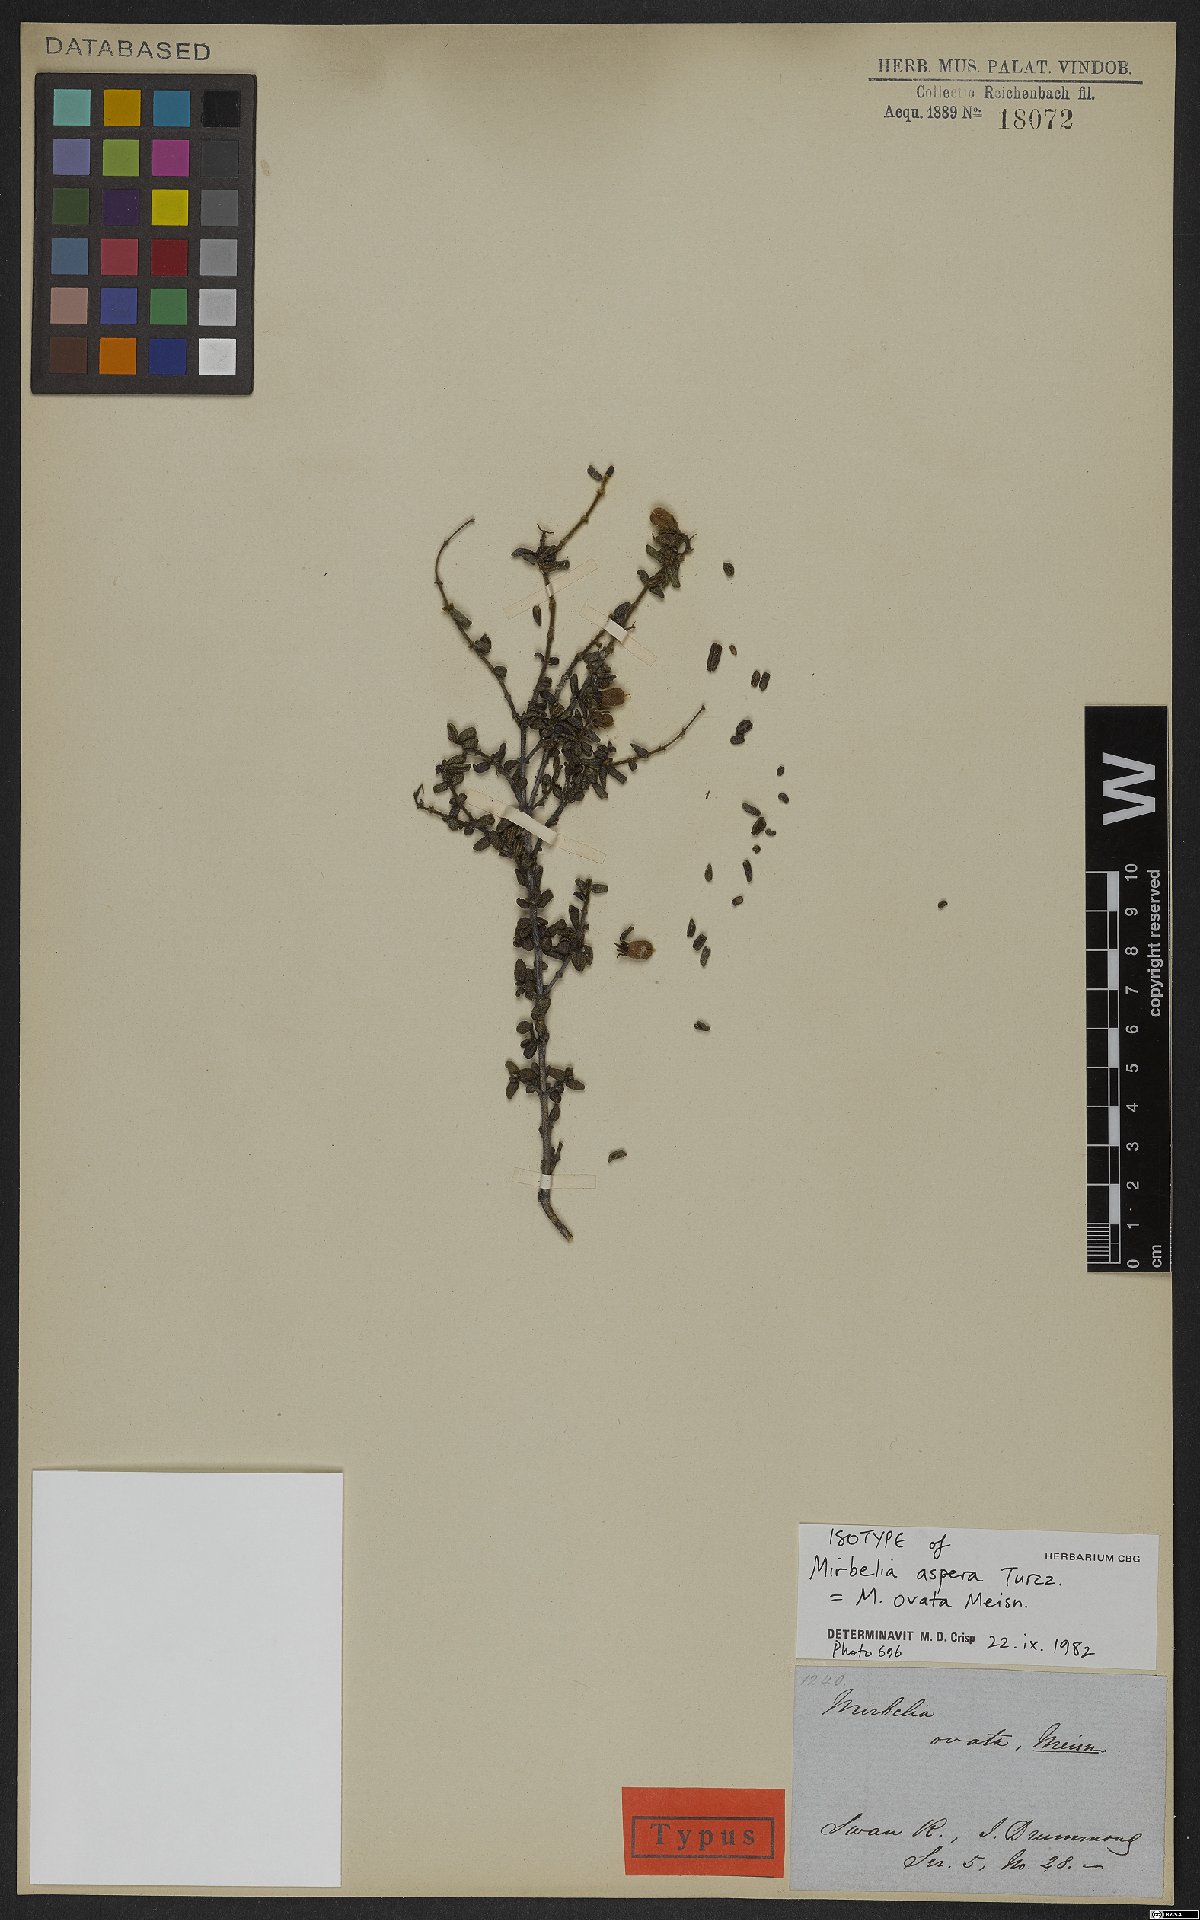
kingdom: Plantae
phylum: Tracheophyta
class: Magnoliopsida
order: Fabales
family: Fabaceae
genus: Mirbelia
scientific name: Mirbelia ovata
